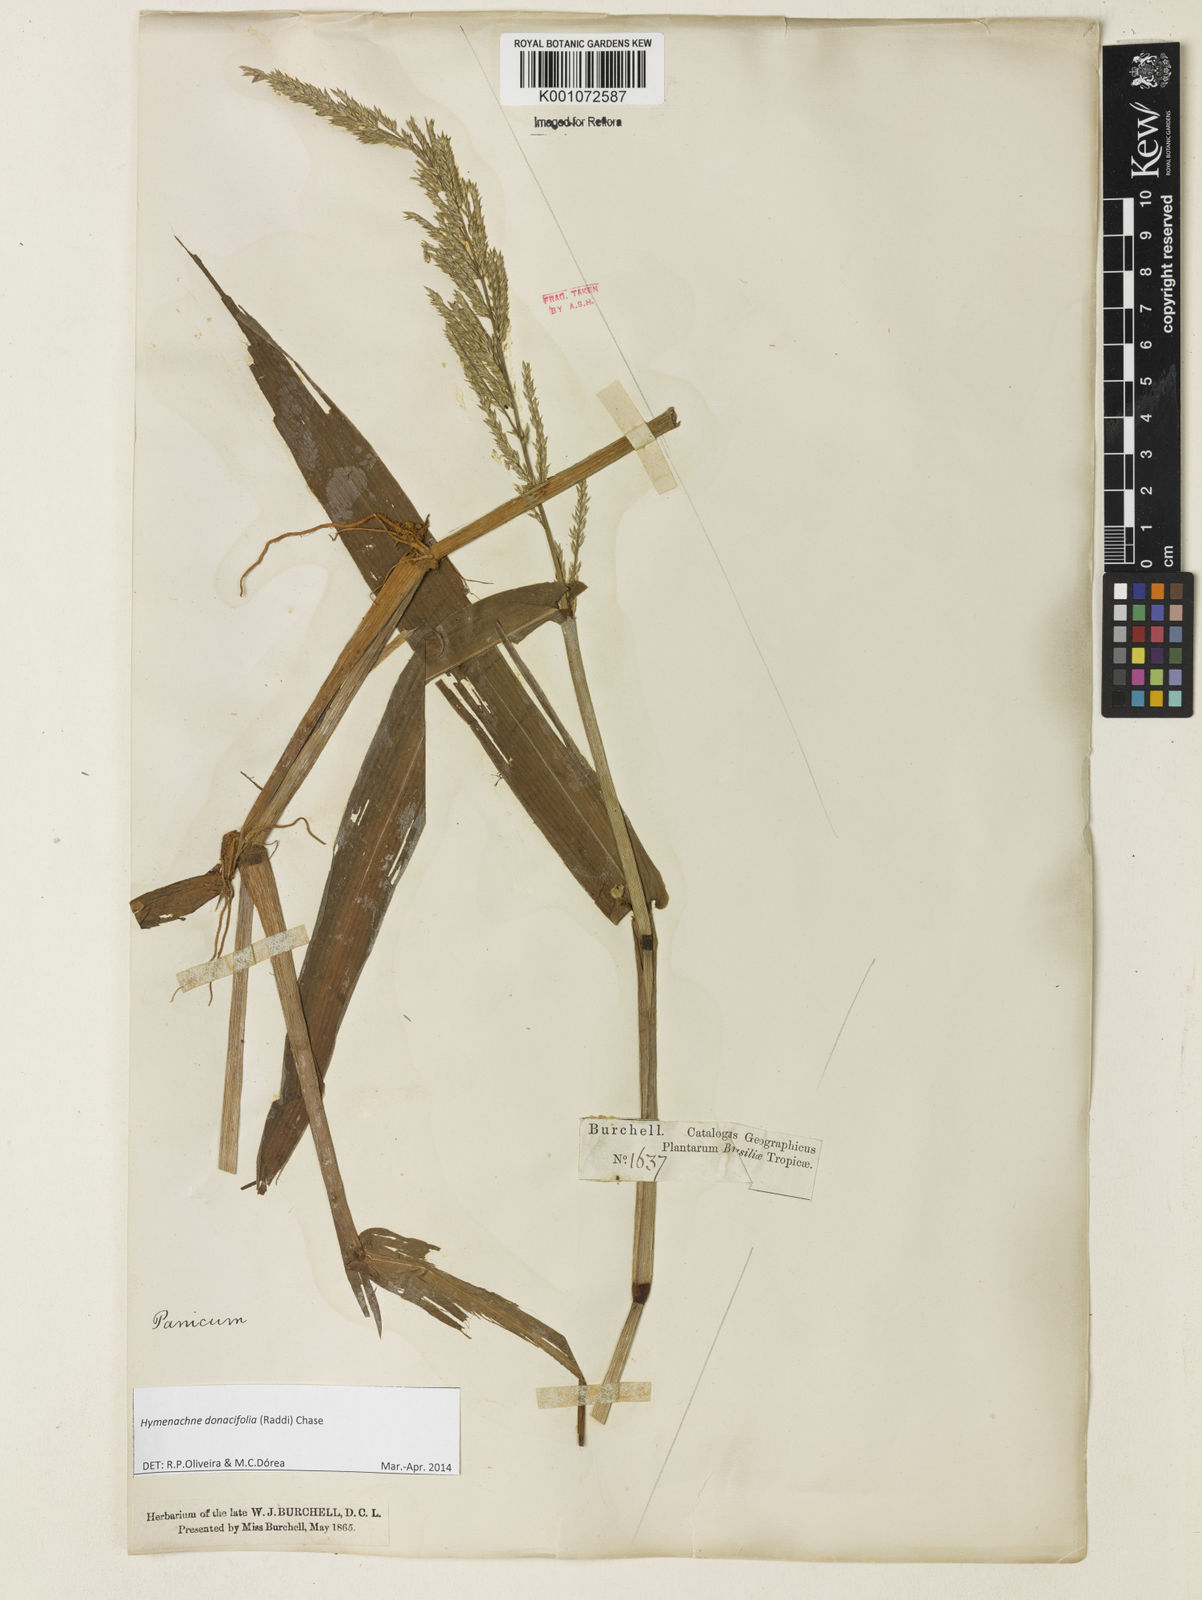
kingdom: Plantae
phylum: Tracheophyta
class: Liliopsida
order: Poales
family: Poaceae
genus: Hymenachne
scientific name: Hymenachne donacifolia
